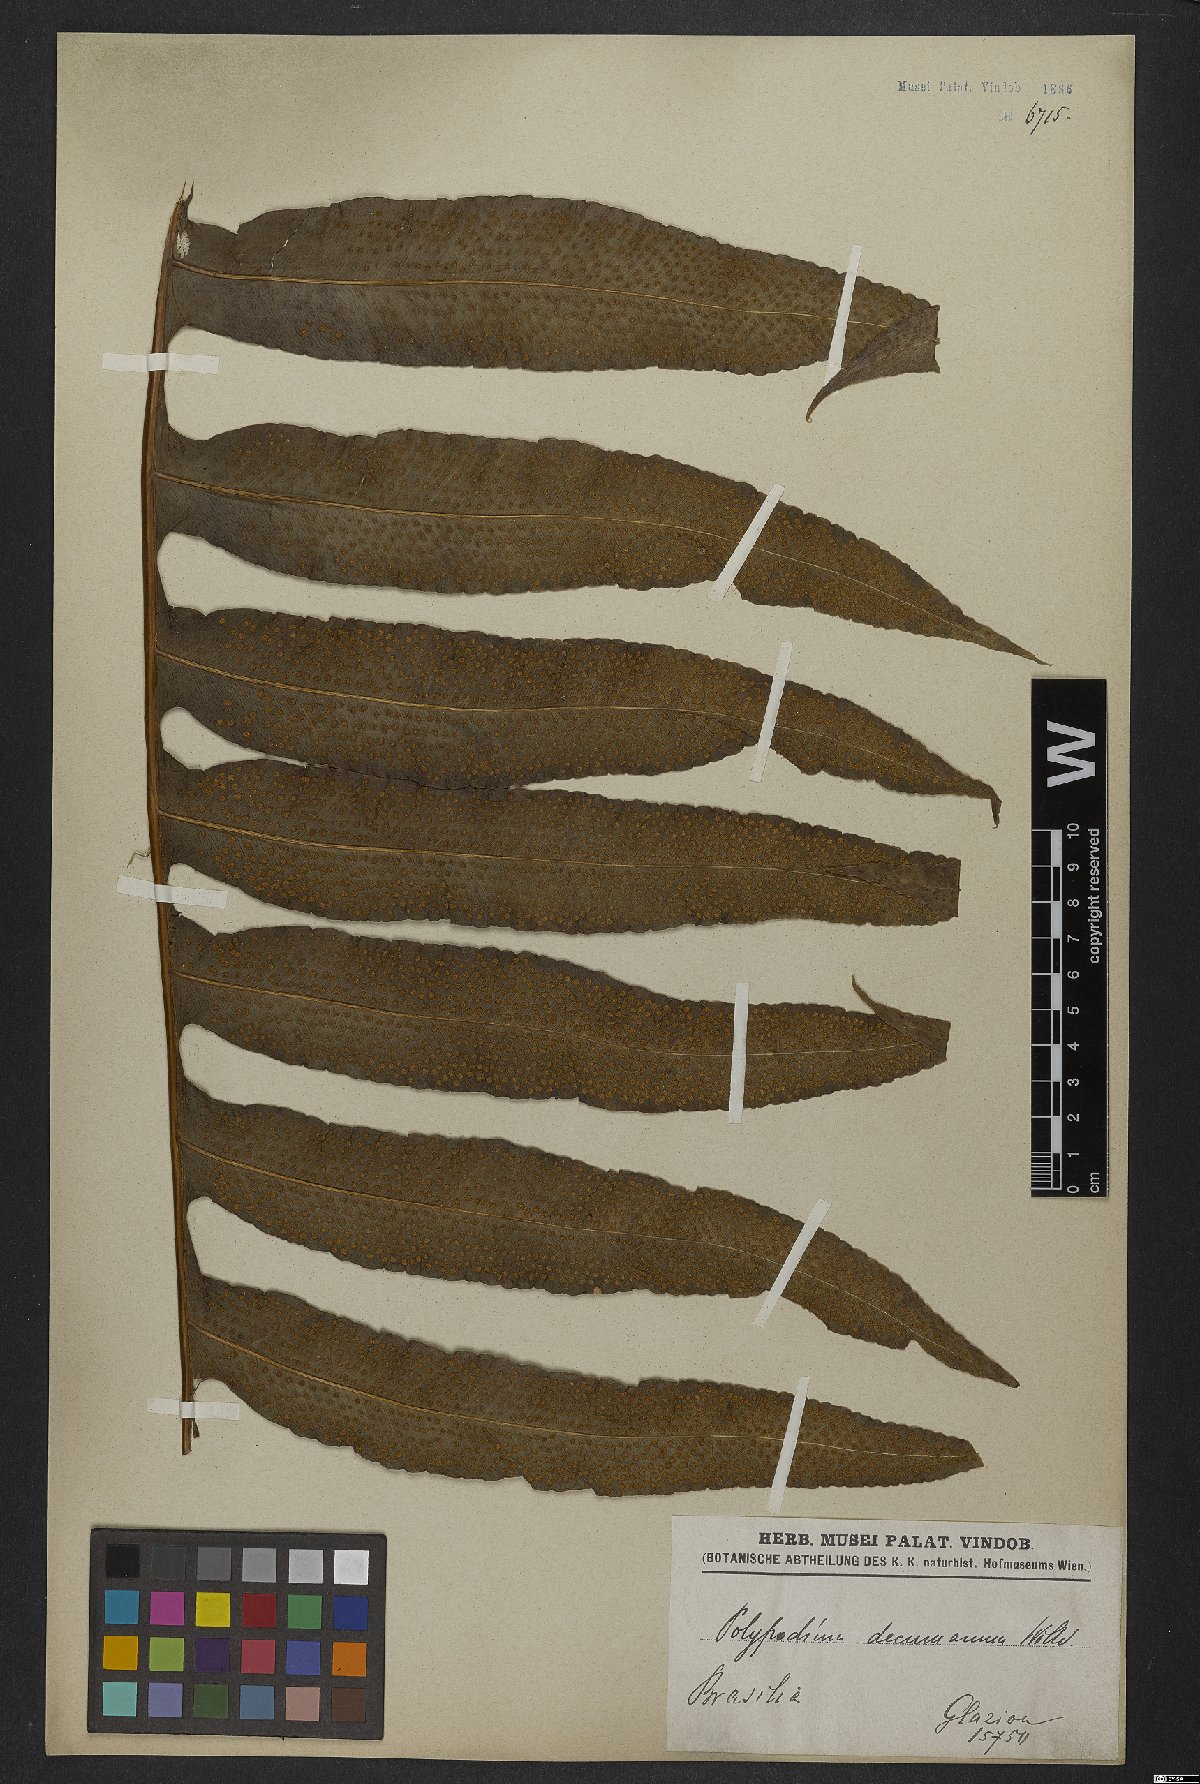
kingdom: Plantae
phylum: Tracheophyta
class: Polypodiopsida
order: Polypodiales
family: Polypodiaceae
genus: Phlebodium
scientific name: Phlebodium decumanum
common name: Golden polypod
